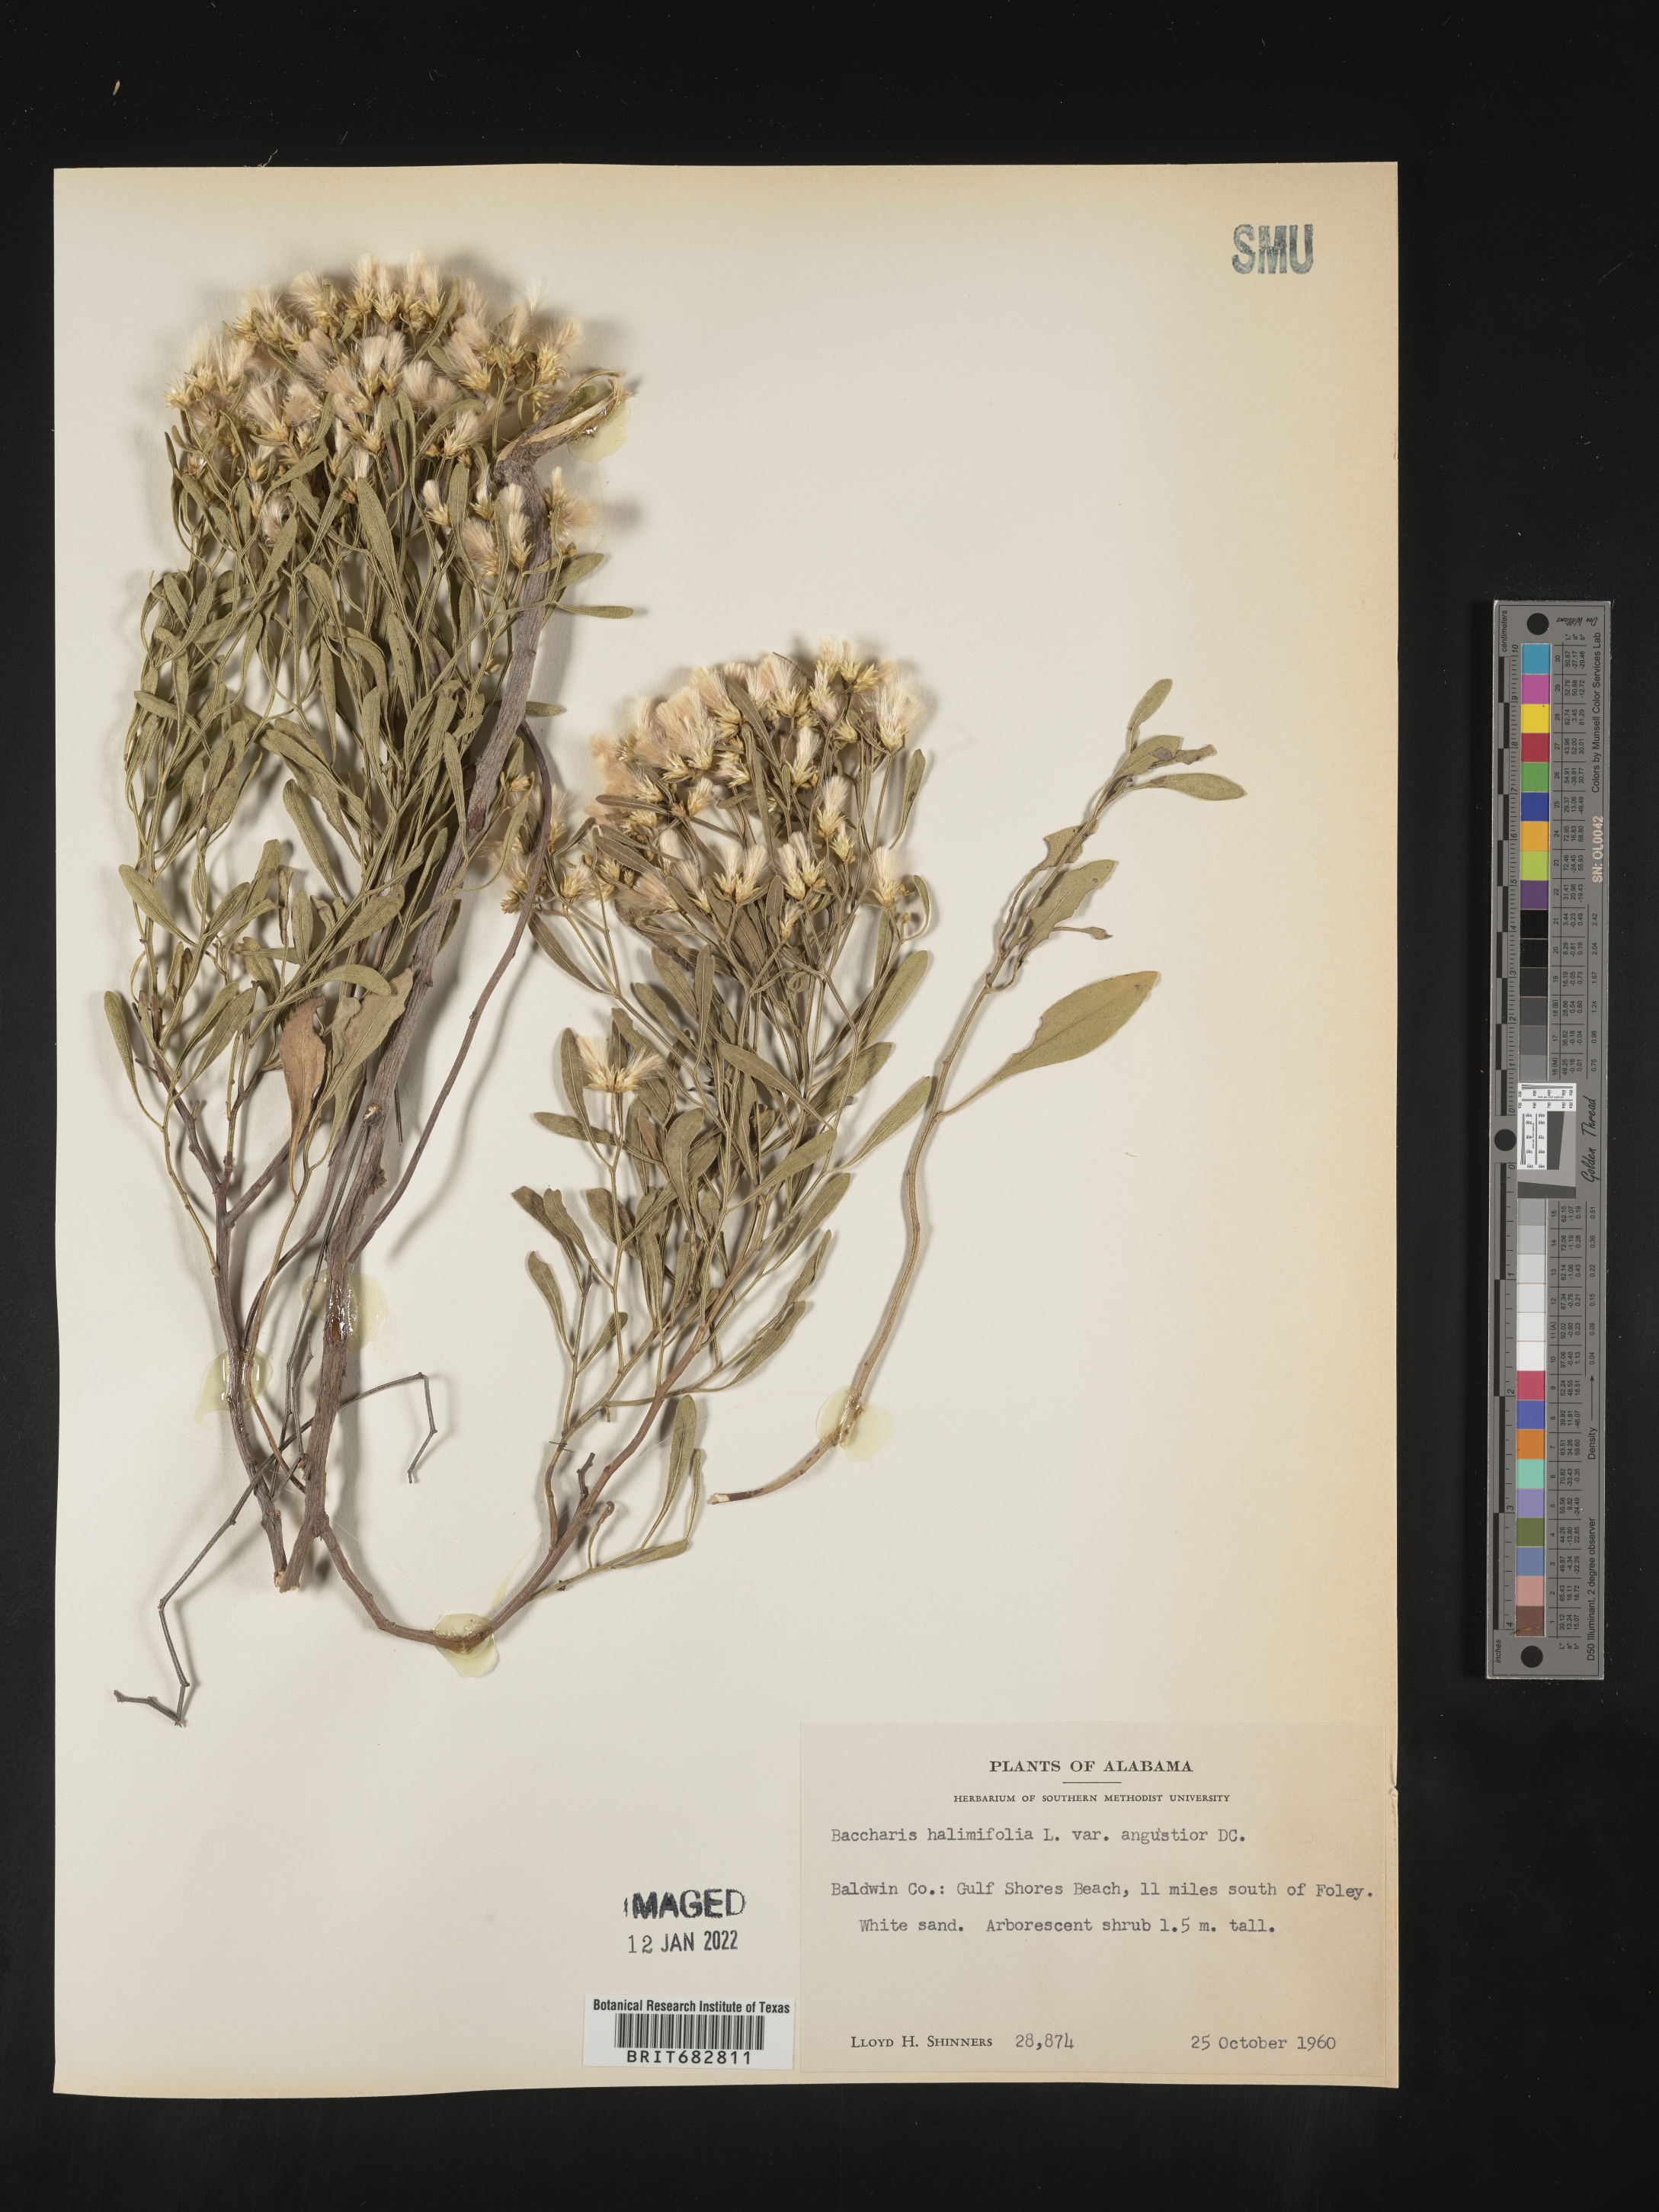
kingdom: Plantae
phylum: Tracheophyta
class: Magnoliopsida
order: Asterales
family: Asteraceae
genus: Nidorella
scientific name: Nidorella ivifolia
